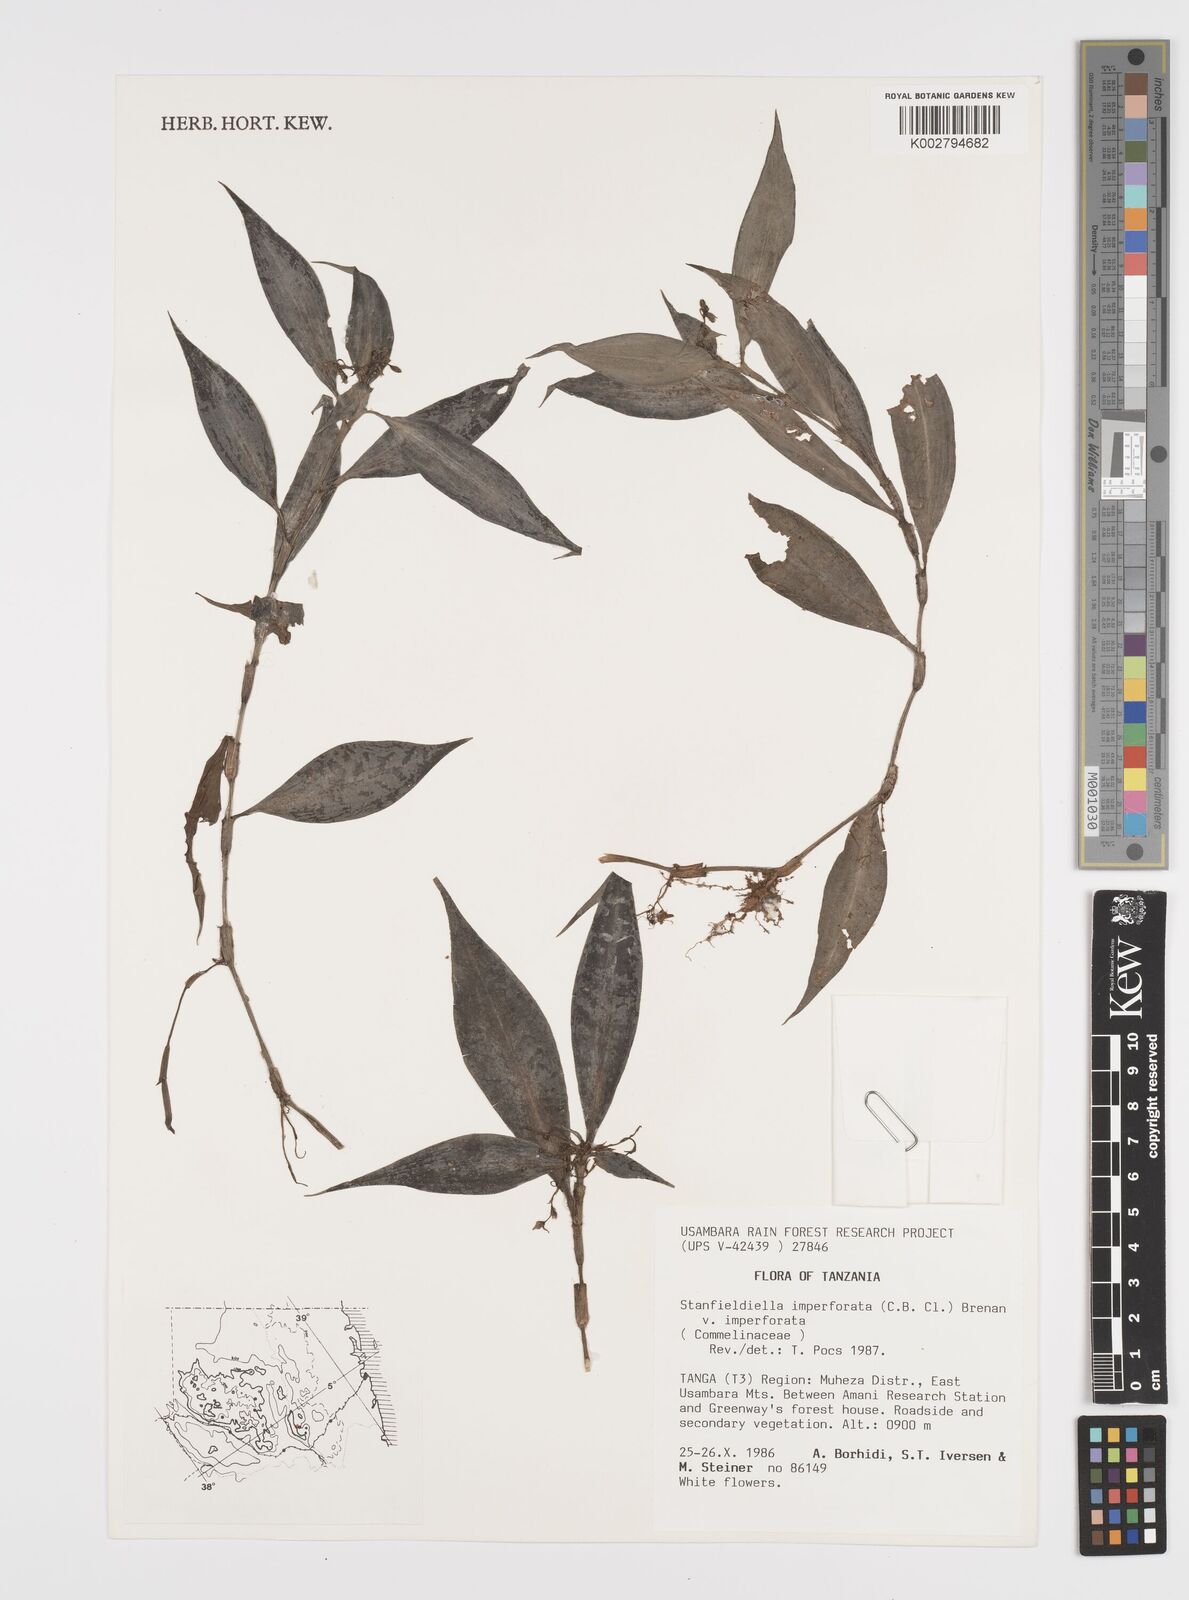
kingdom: Plantae
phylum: Tracheophyta
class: Liliopsida
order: Commelinales
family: Commelinaceae
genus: Stanfieldiella
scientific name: Stanfieldiella imperforata
